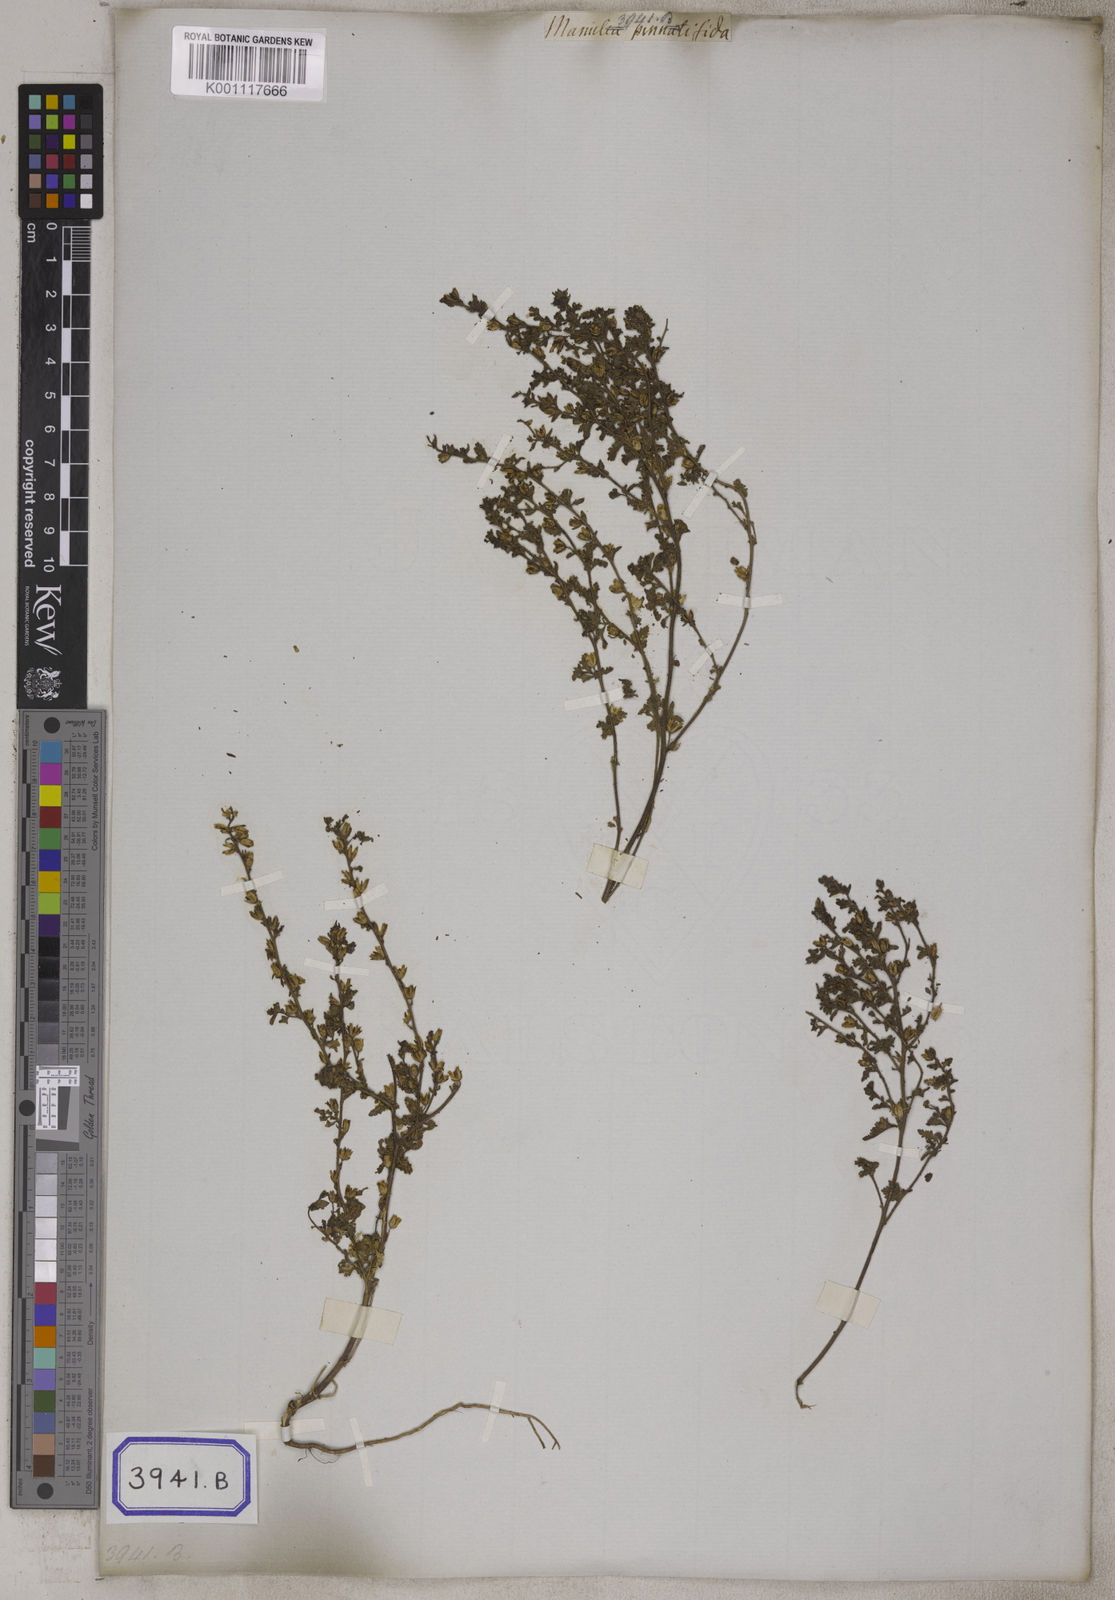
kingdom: Plantae
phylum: Tracheophyta
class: Magnoliopsida
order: Lamiales
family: Scrophulariaceae
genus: Jamesbrittenia
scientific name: Jamesbrittenia dissecta
